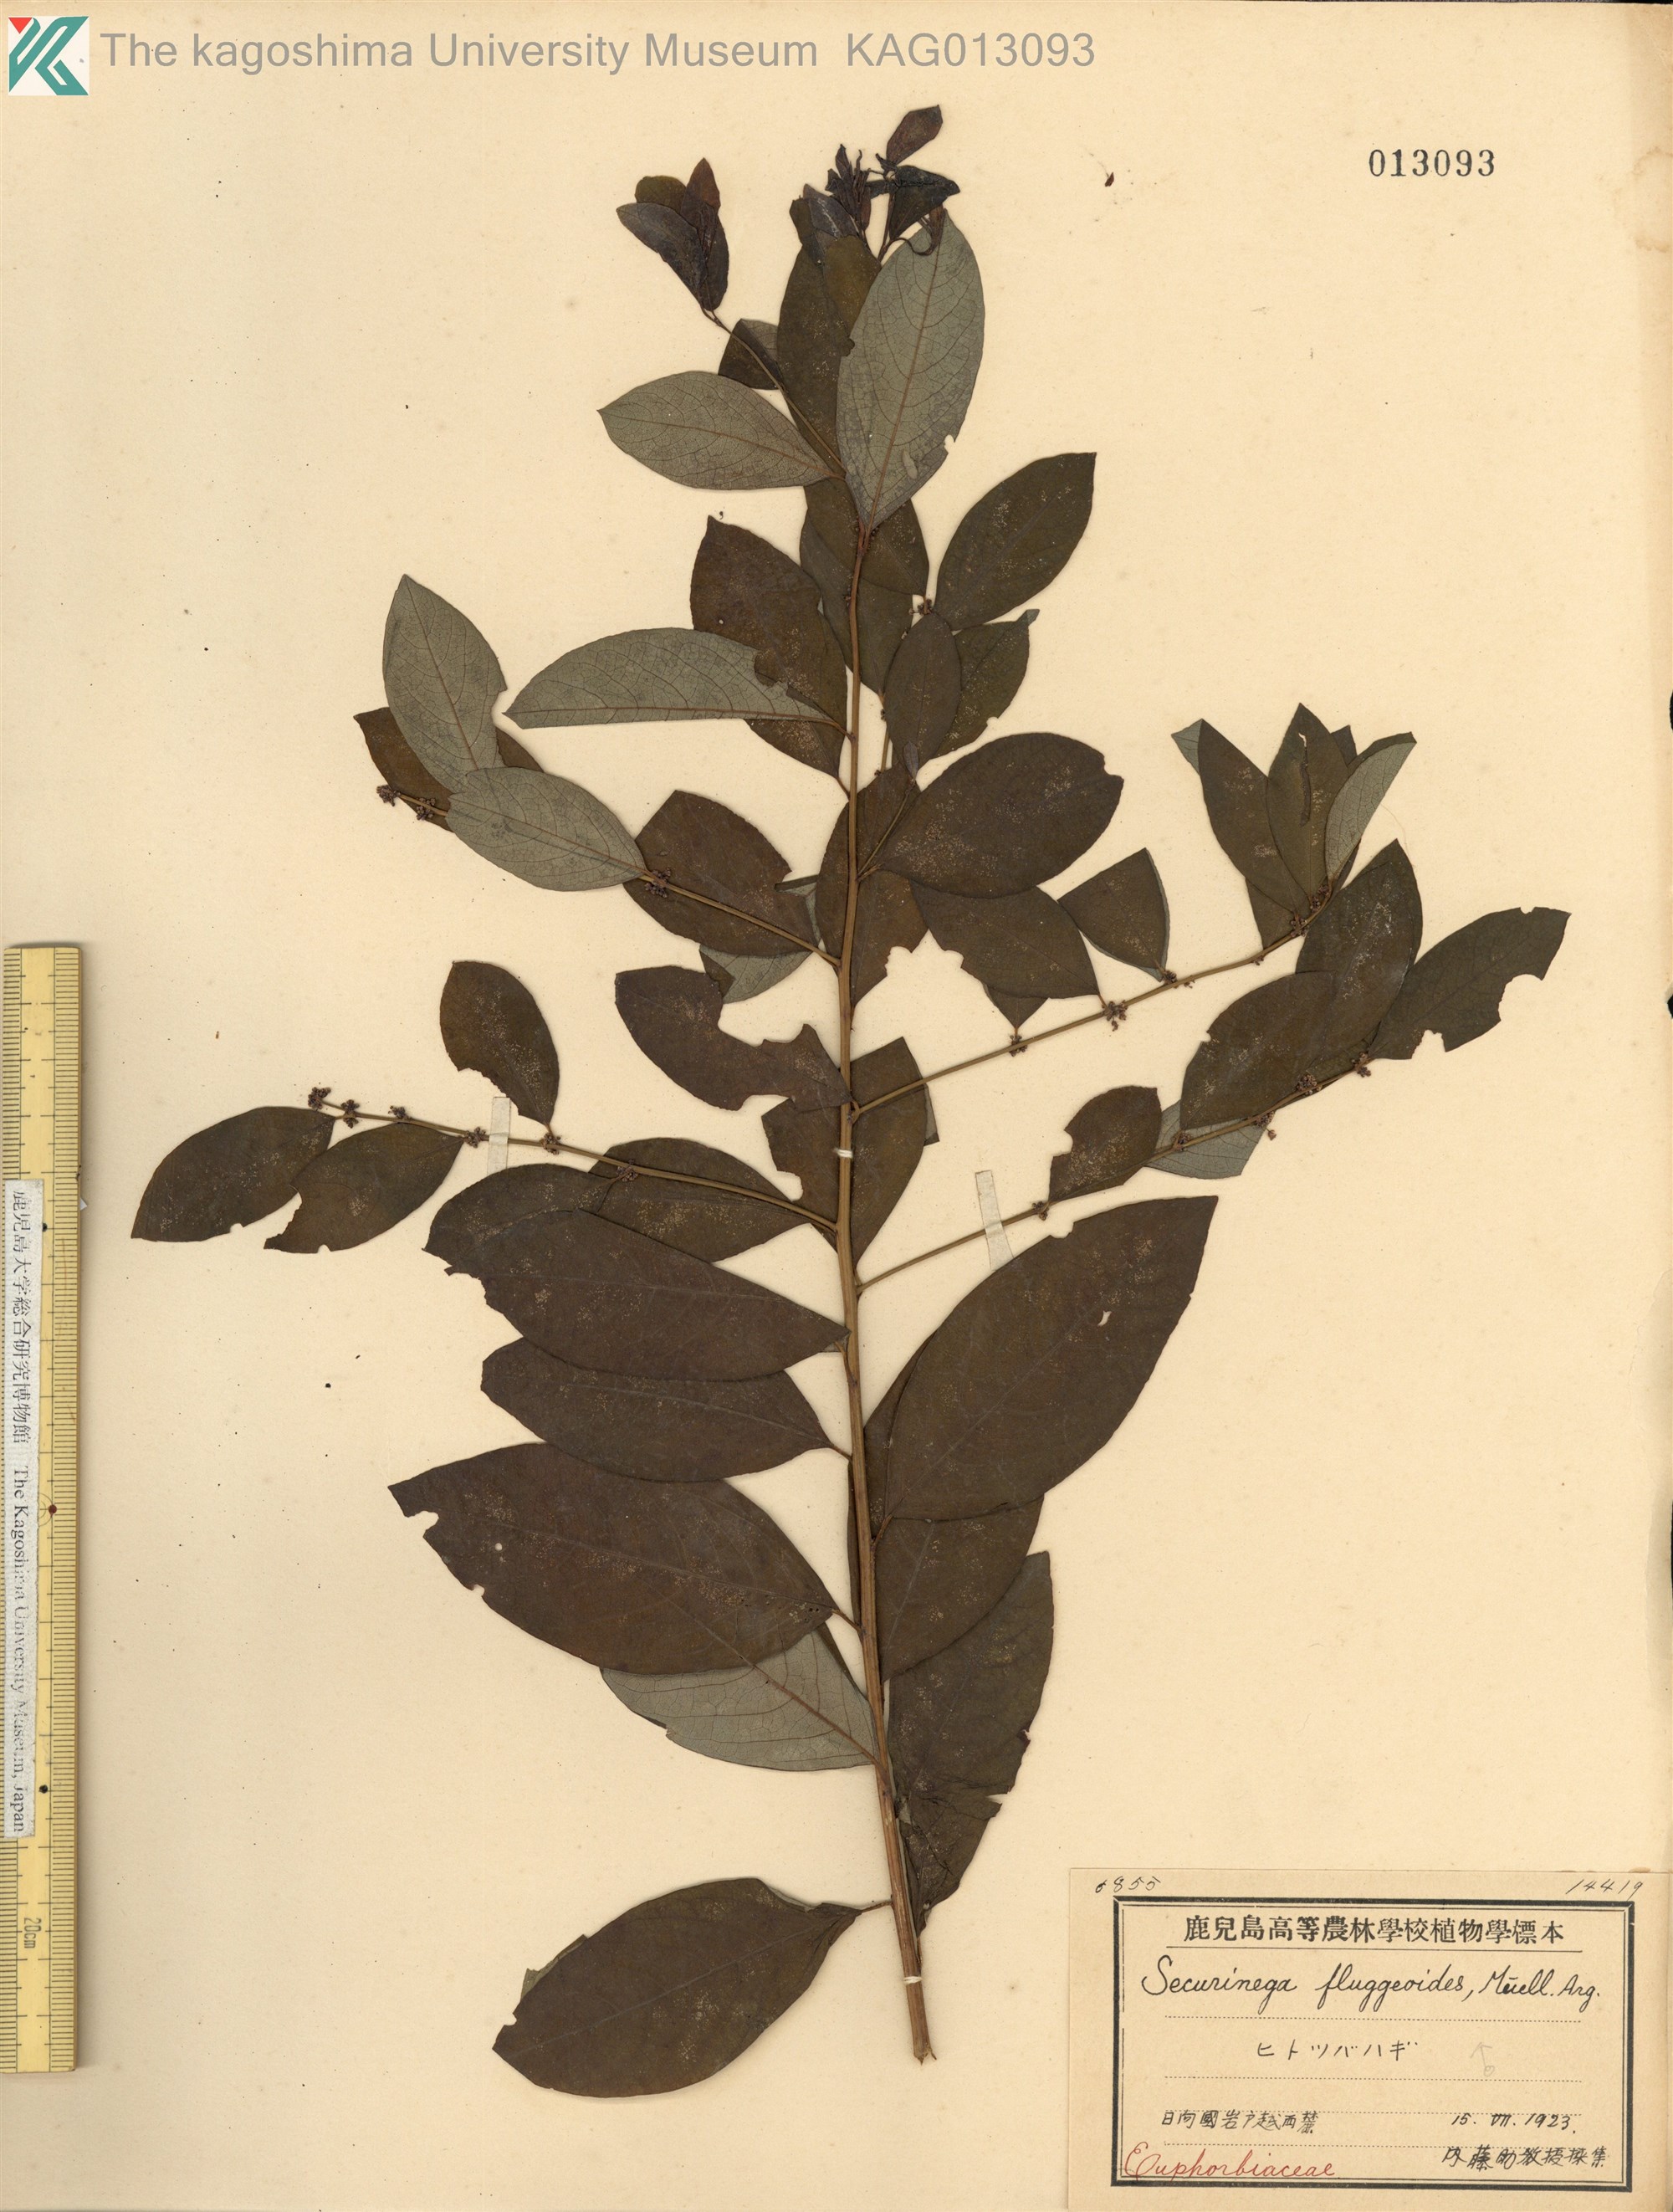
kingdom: Plantae
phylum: Tracheophyta
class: Magnoliopsida
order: Malpighiales
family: Phyllanthaceae
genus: Flueggea
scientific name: Flueggea suffruticosa
